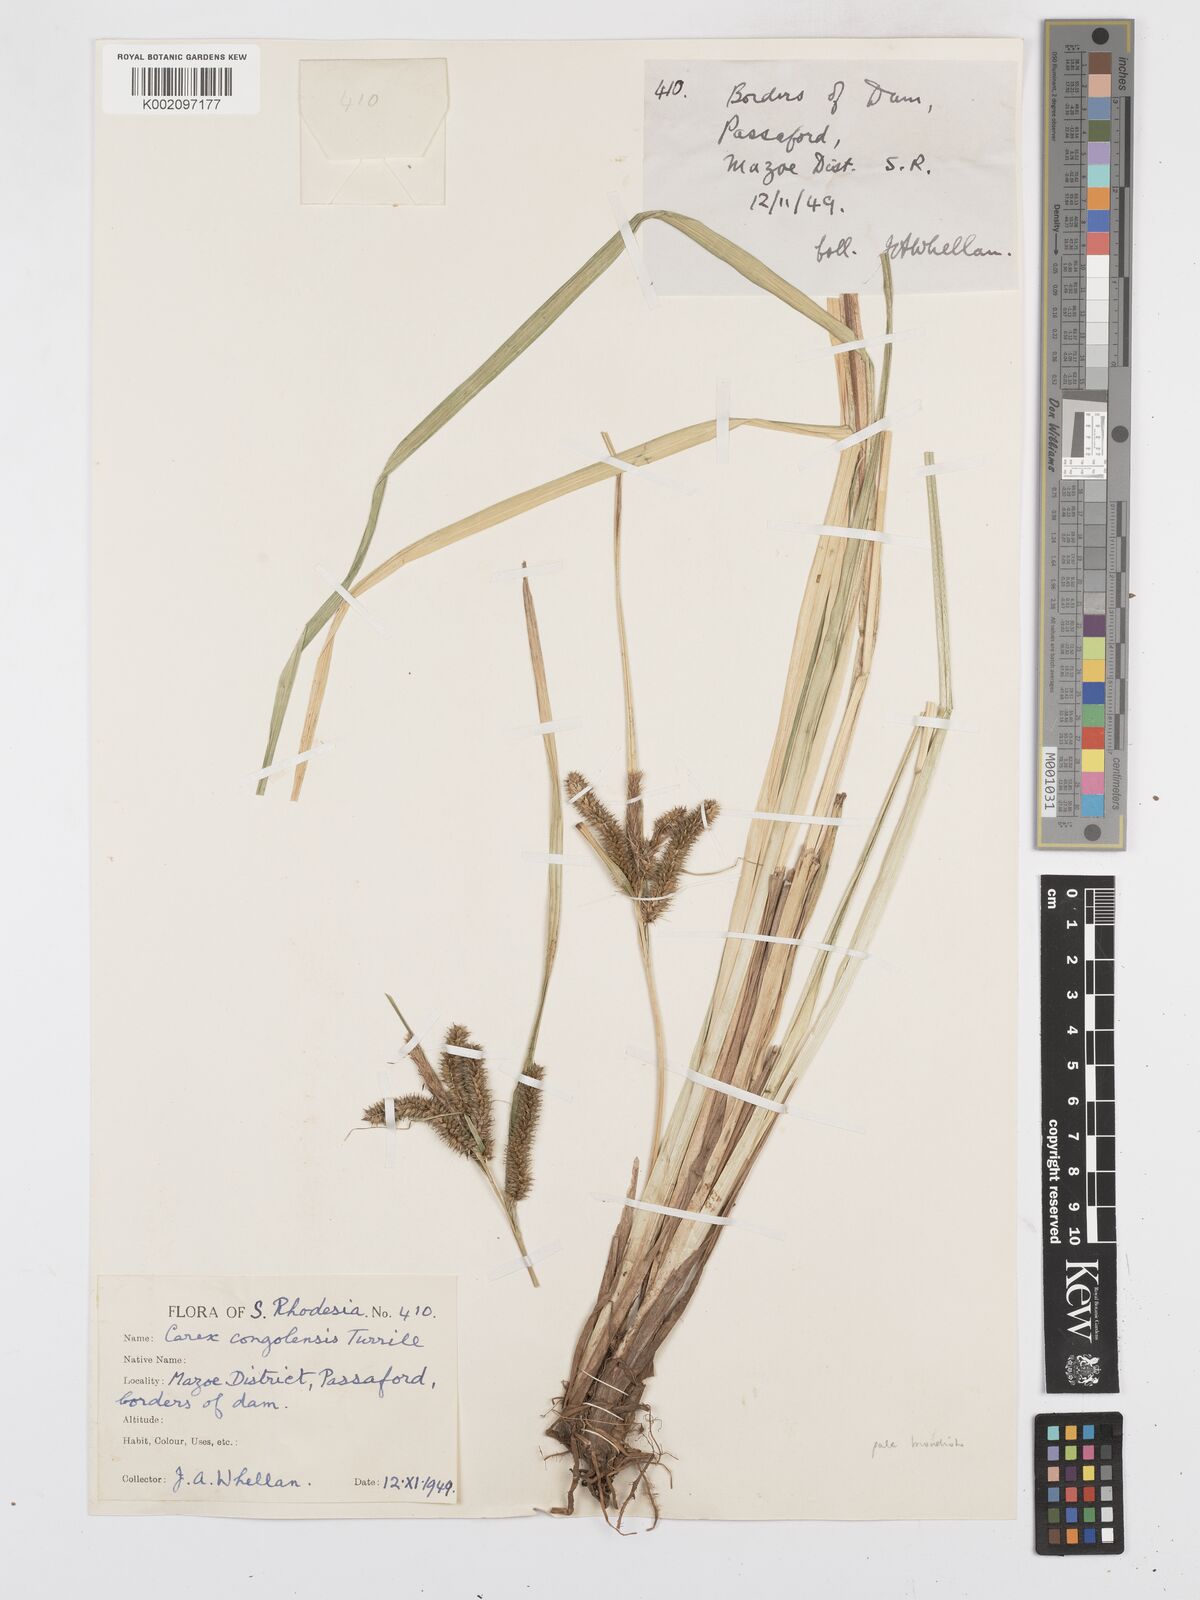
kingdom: Plantae
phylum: Tracheophyta
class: Liliopsida
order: Poales
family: Cyperaceae
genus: Carex
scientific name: Carex congolensis
